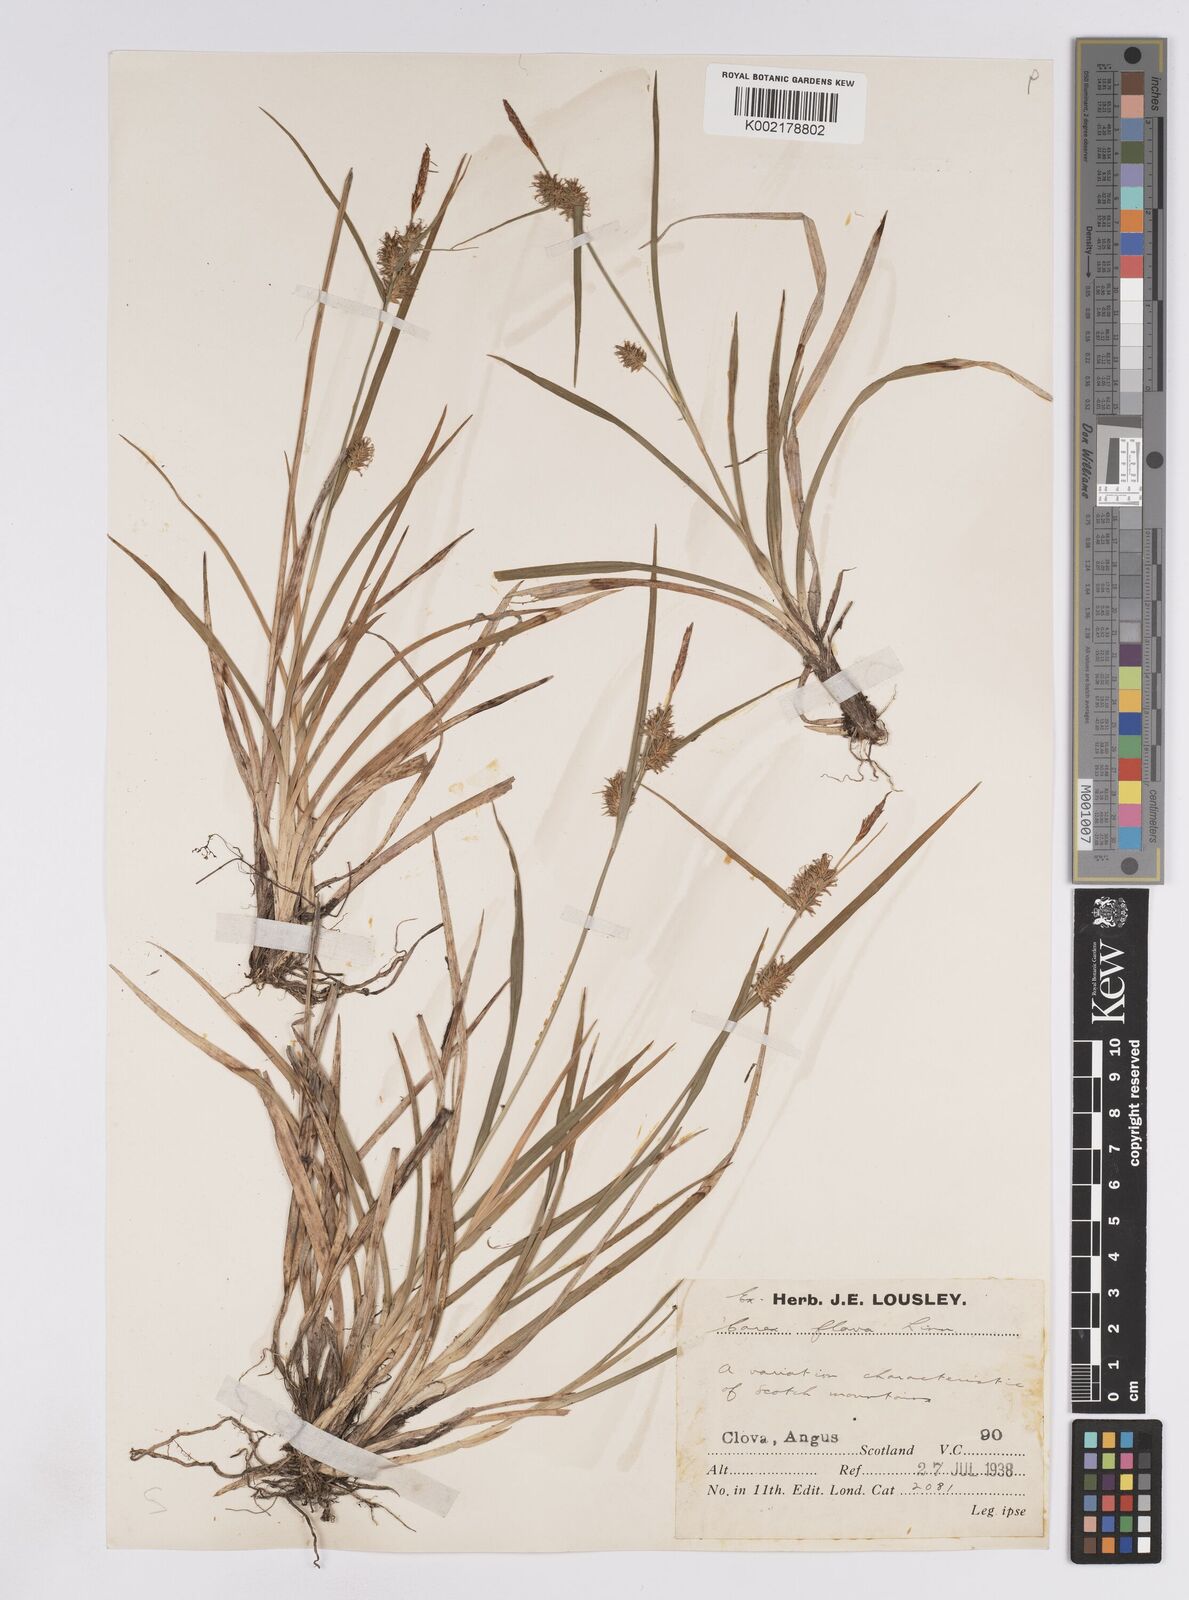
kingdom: Plantae
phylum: Tracheophyta
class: Liliopsida
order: Poales
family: Cyperaceae
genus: Carex
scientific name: Carex lepidocarpa
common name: Long-stalked yellow-sedge
